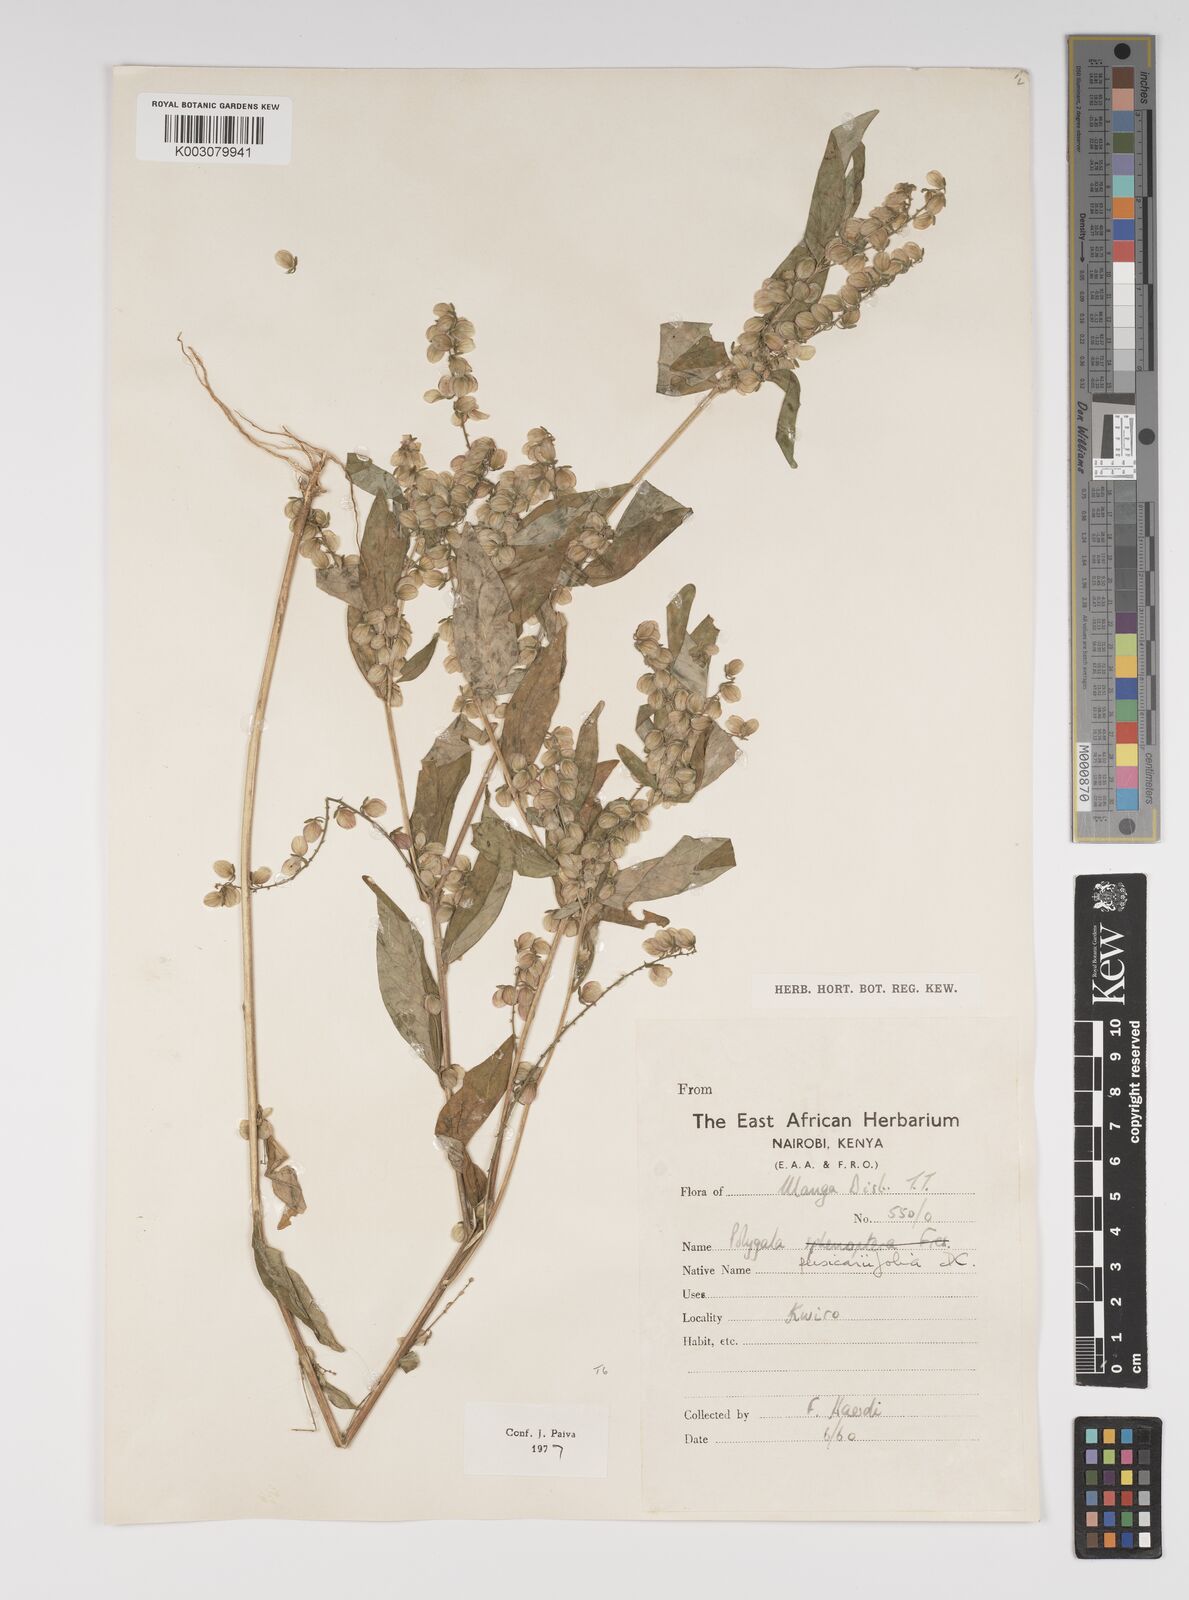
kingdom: Plantae
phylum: Tracheophyta
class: Magnoliopsida
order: Fabales
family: Polygalaceae
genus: Polygala
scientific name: Polygala persicariifolia
